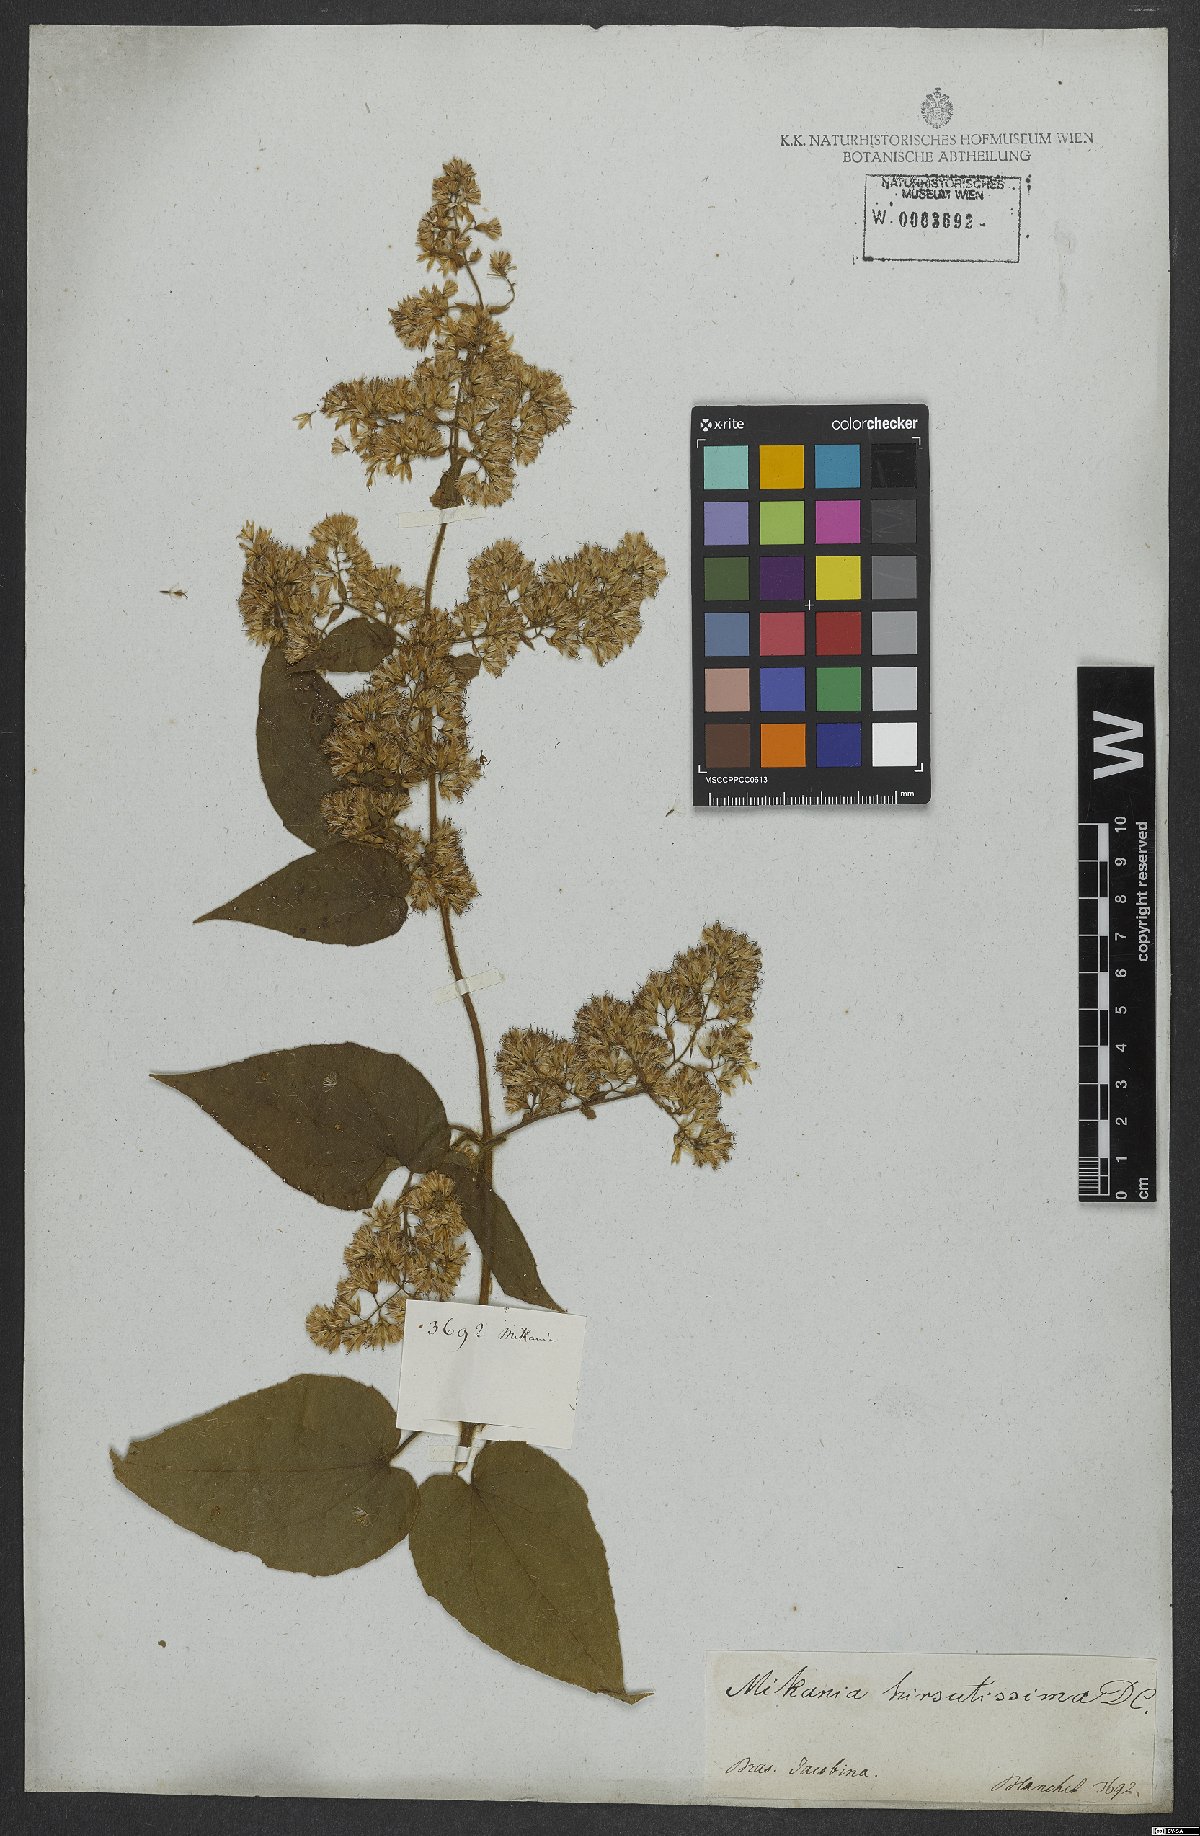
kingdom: Plantae
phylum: Tracheophyta
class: Magnoliopsida
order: Asterales
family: Asteraceae
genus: Mikania
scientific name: Mikania banisteriae
